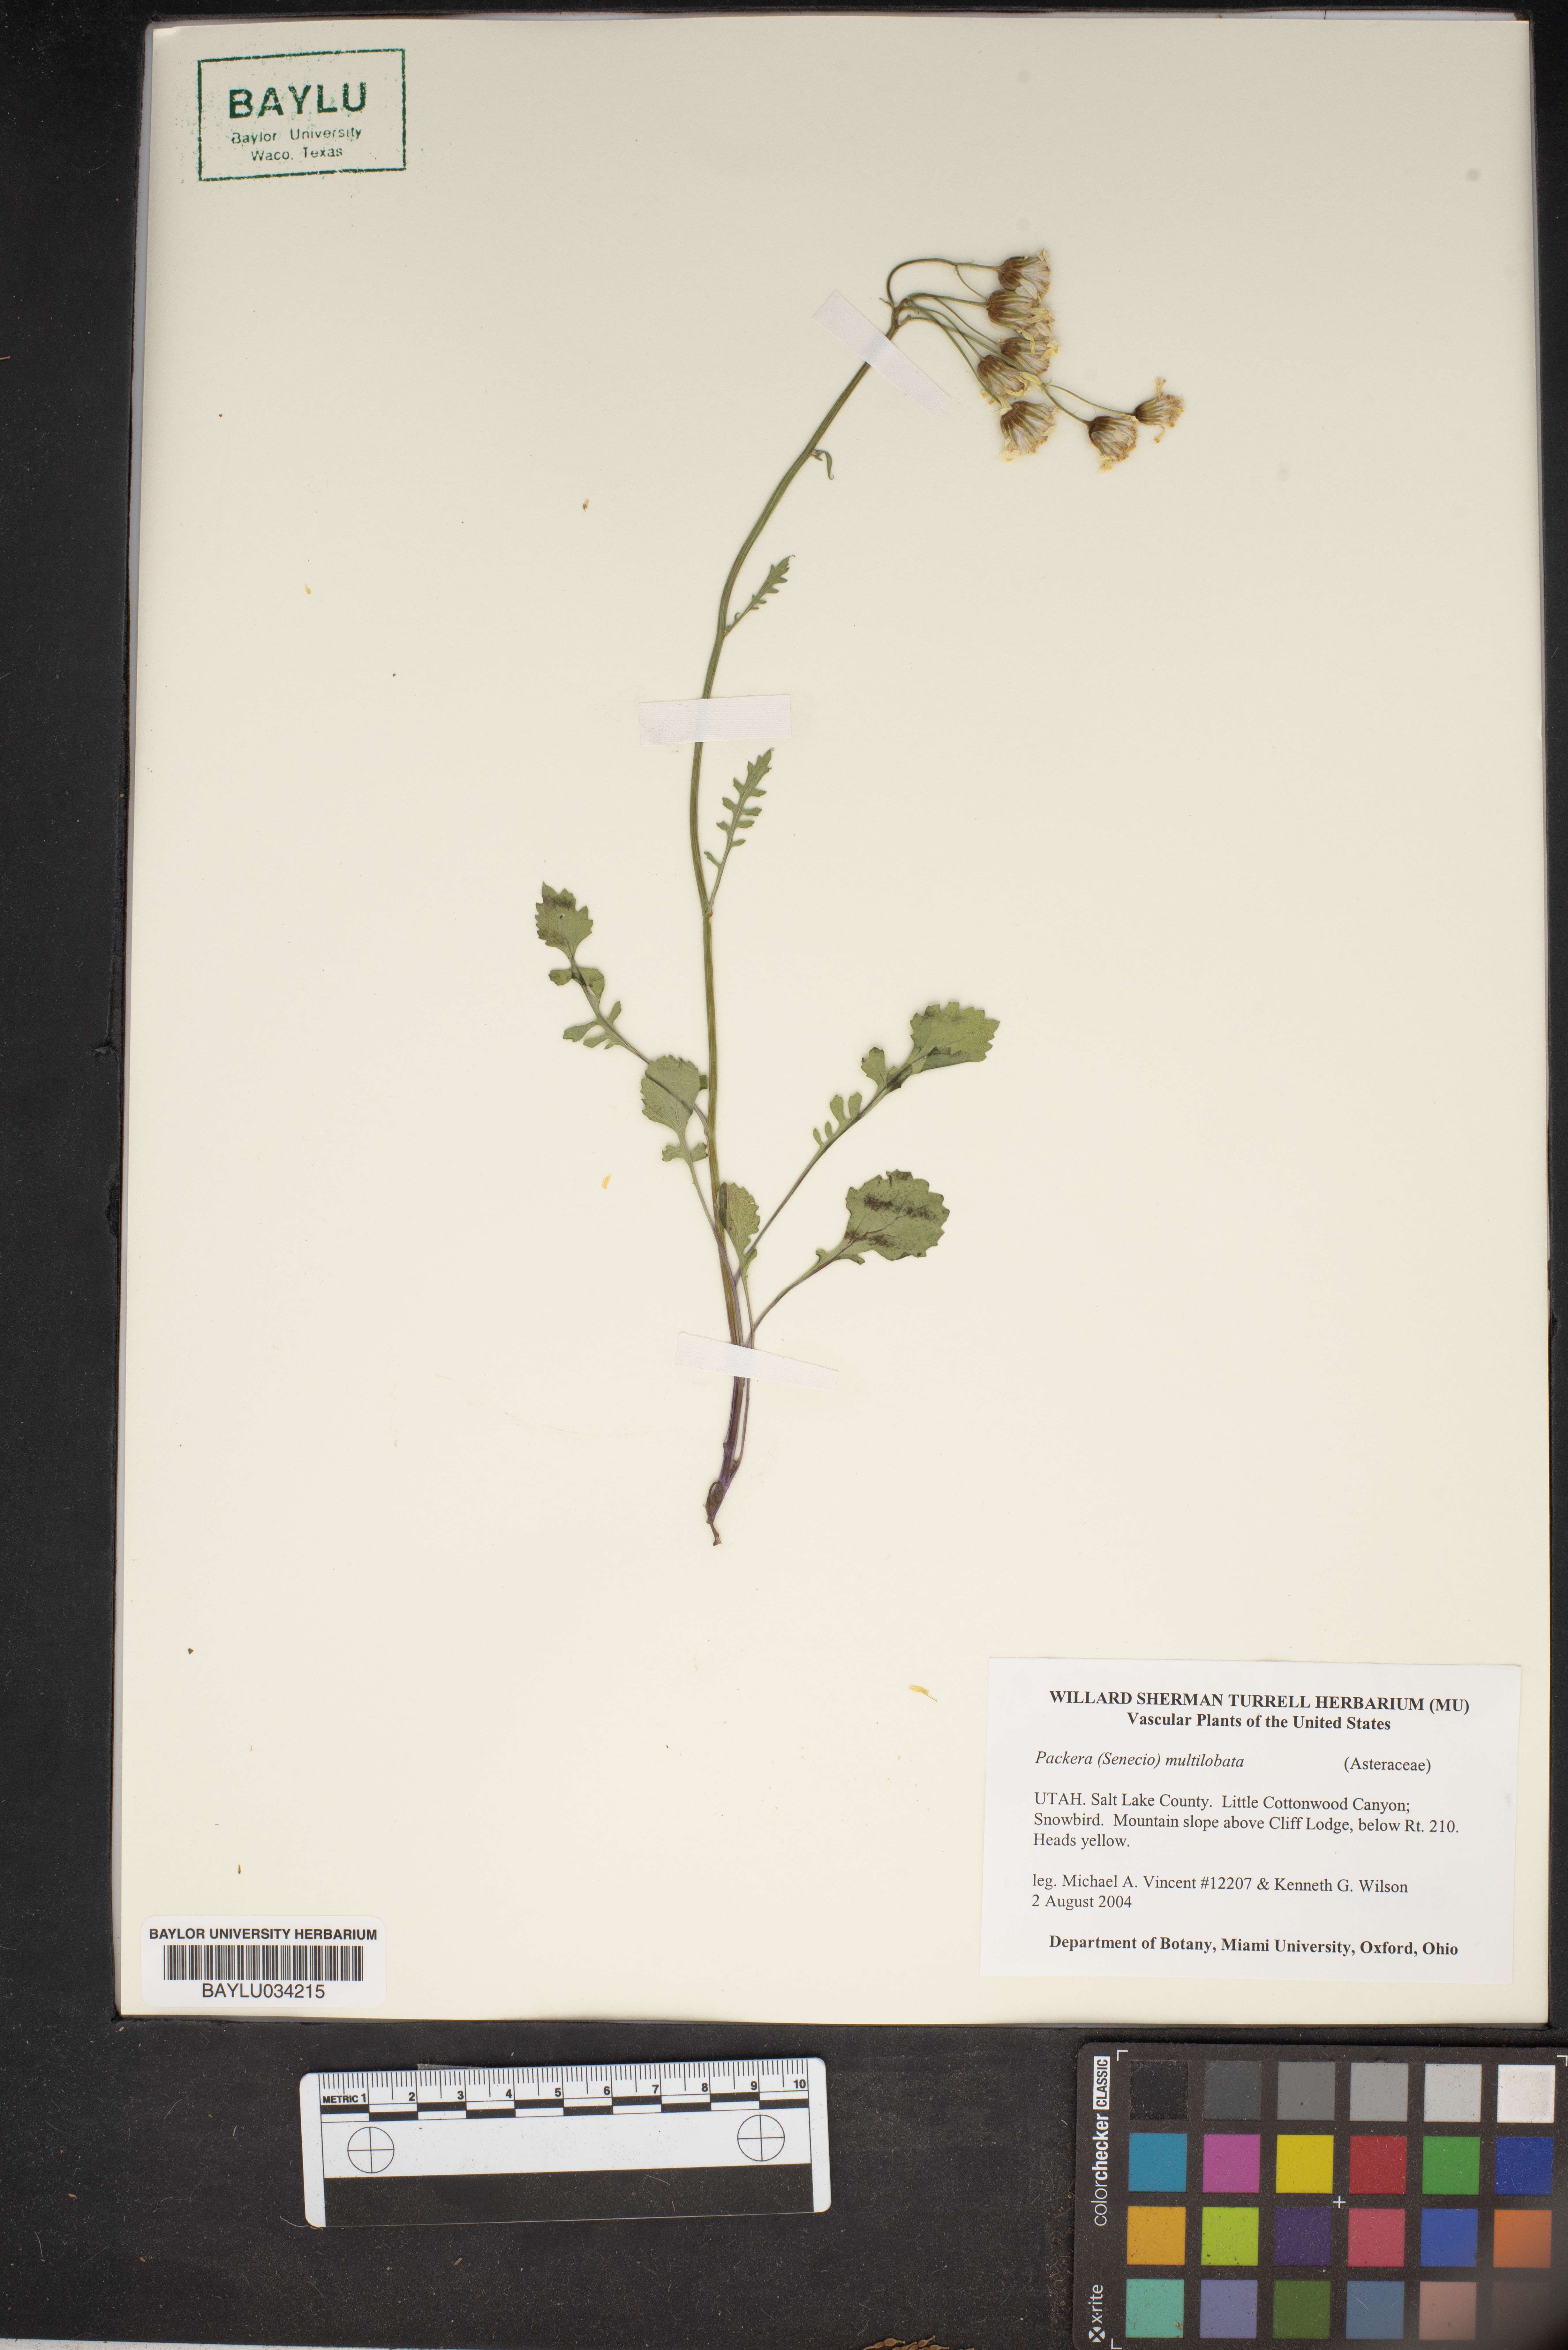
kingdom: Plantae
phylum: Tracheophyta
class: Magnoliopsida
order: Asterales
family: Asteraceae
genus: Packera
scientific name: Packera multilobata
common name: Lobe-leaf groundsel
